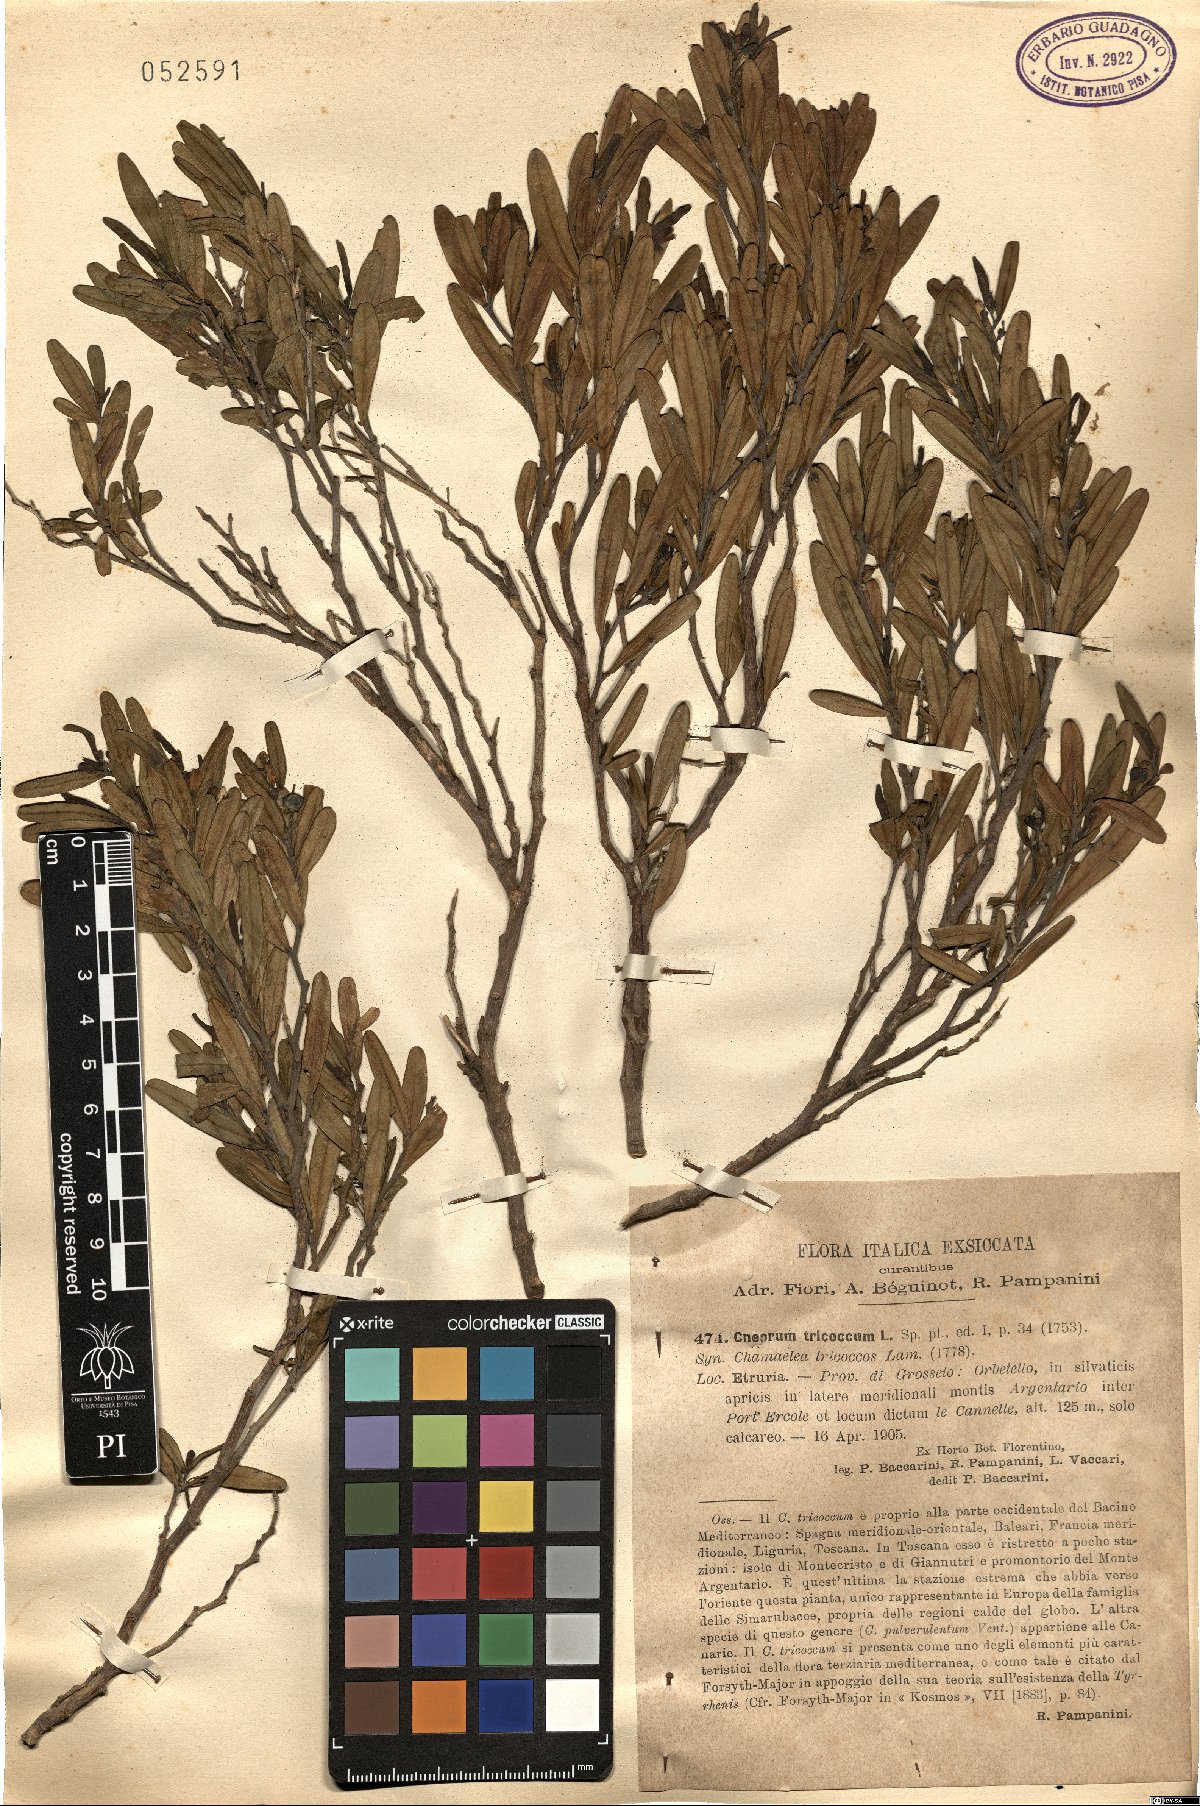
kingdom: Plantae
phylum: Tracheophyta
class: Magnoliopsida
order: Sapindales
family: Rutaceae
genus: Cneorum
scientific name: Cneorum tricoccon
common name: Spurge olive
